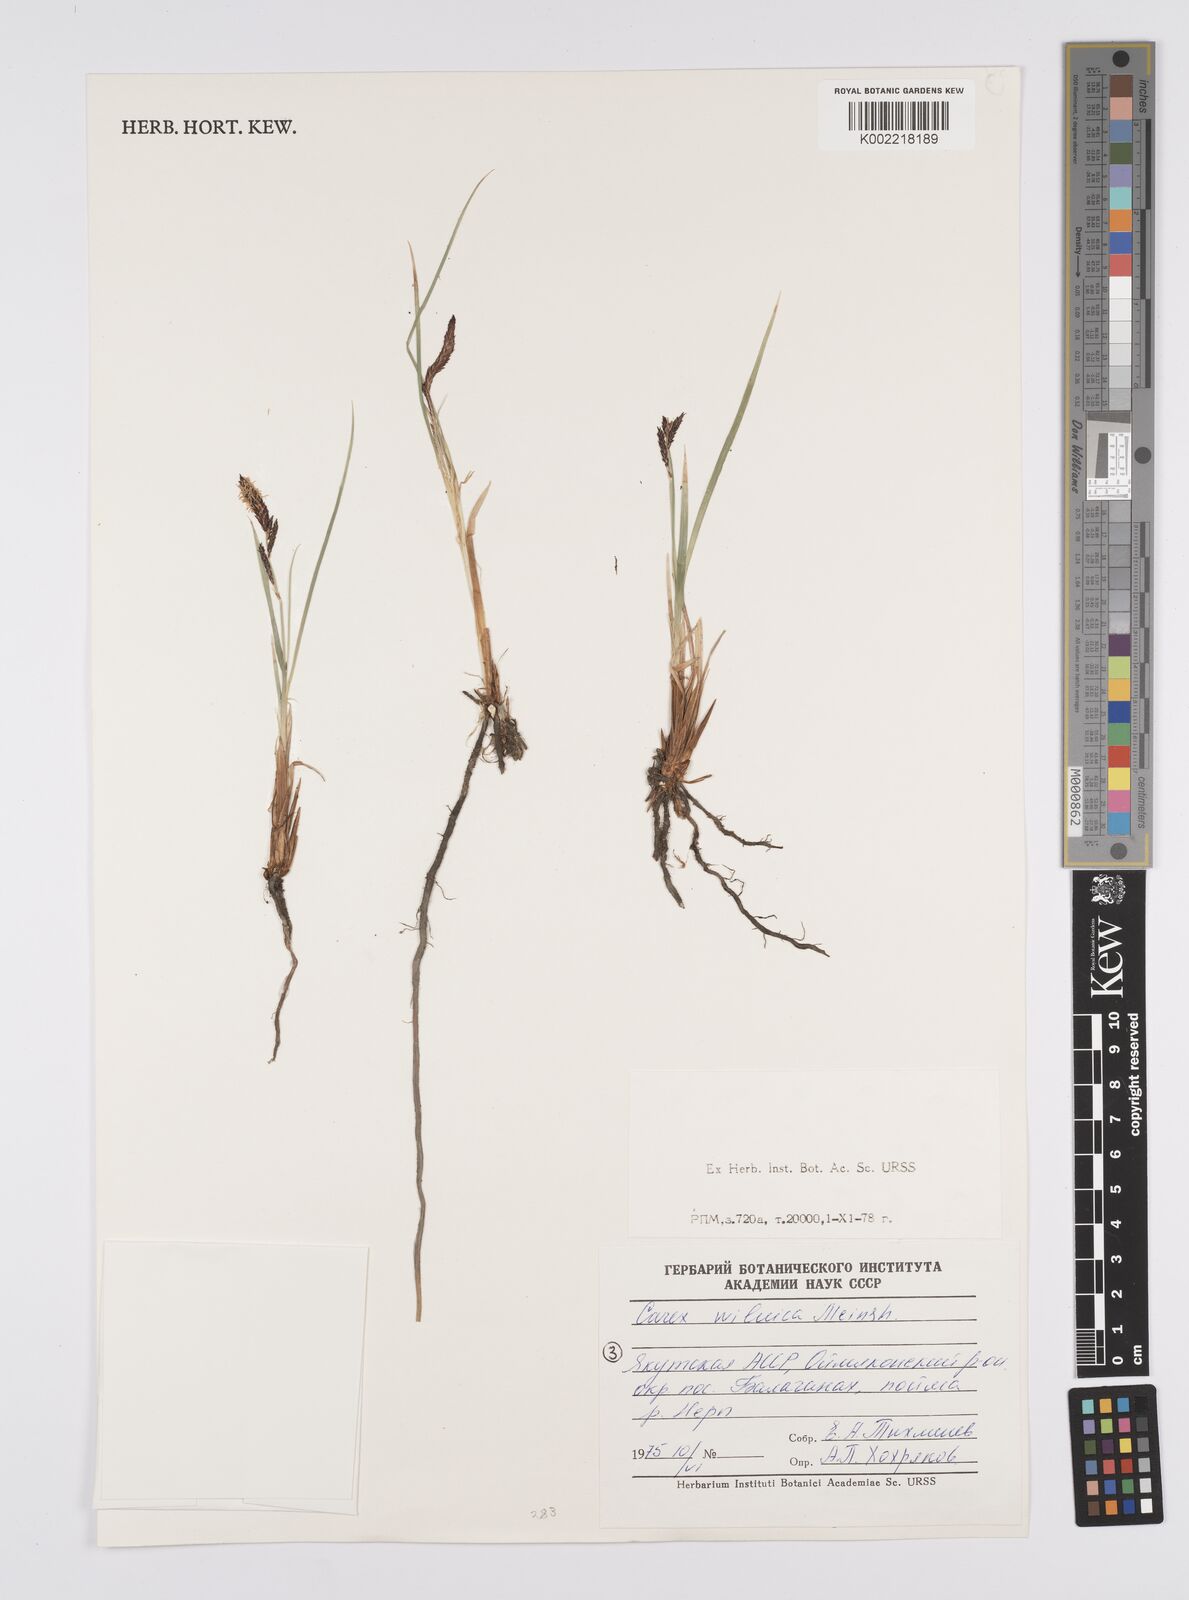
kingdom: Plantae
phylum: Tracheophyta
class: Liliopsida
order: Poales
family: Cyperaceae
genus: Carex
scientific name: Carex nigra
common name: Common sedge
